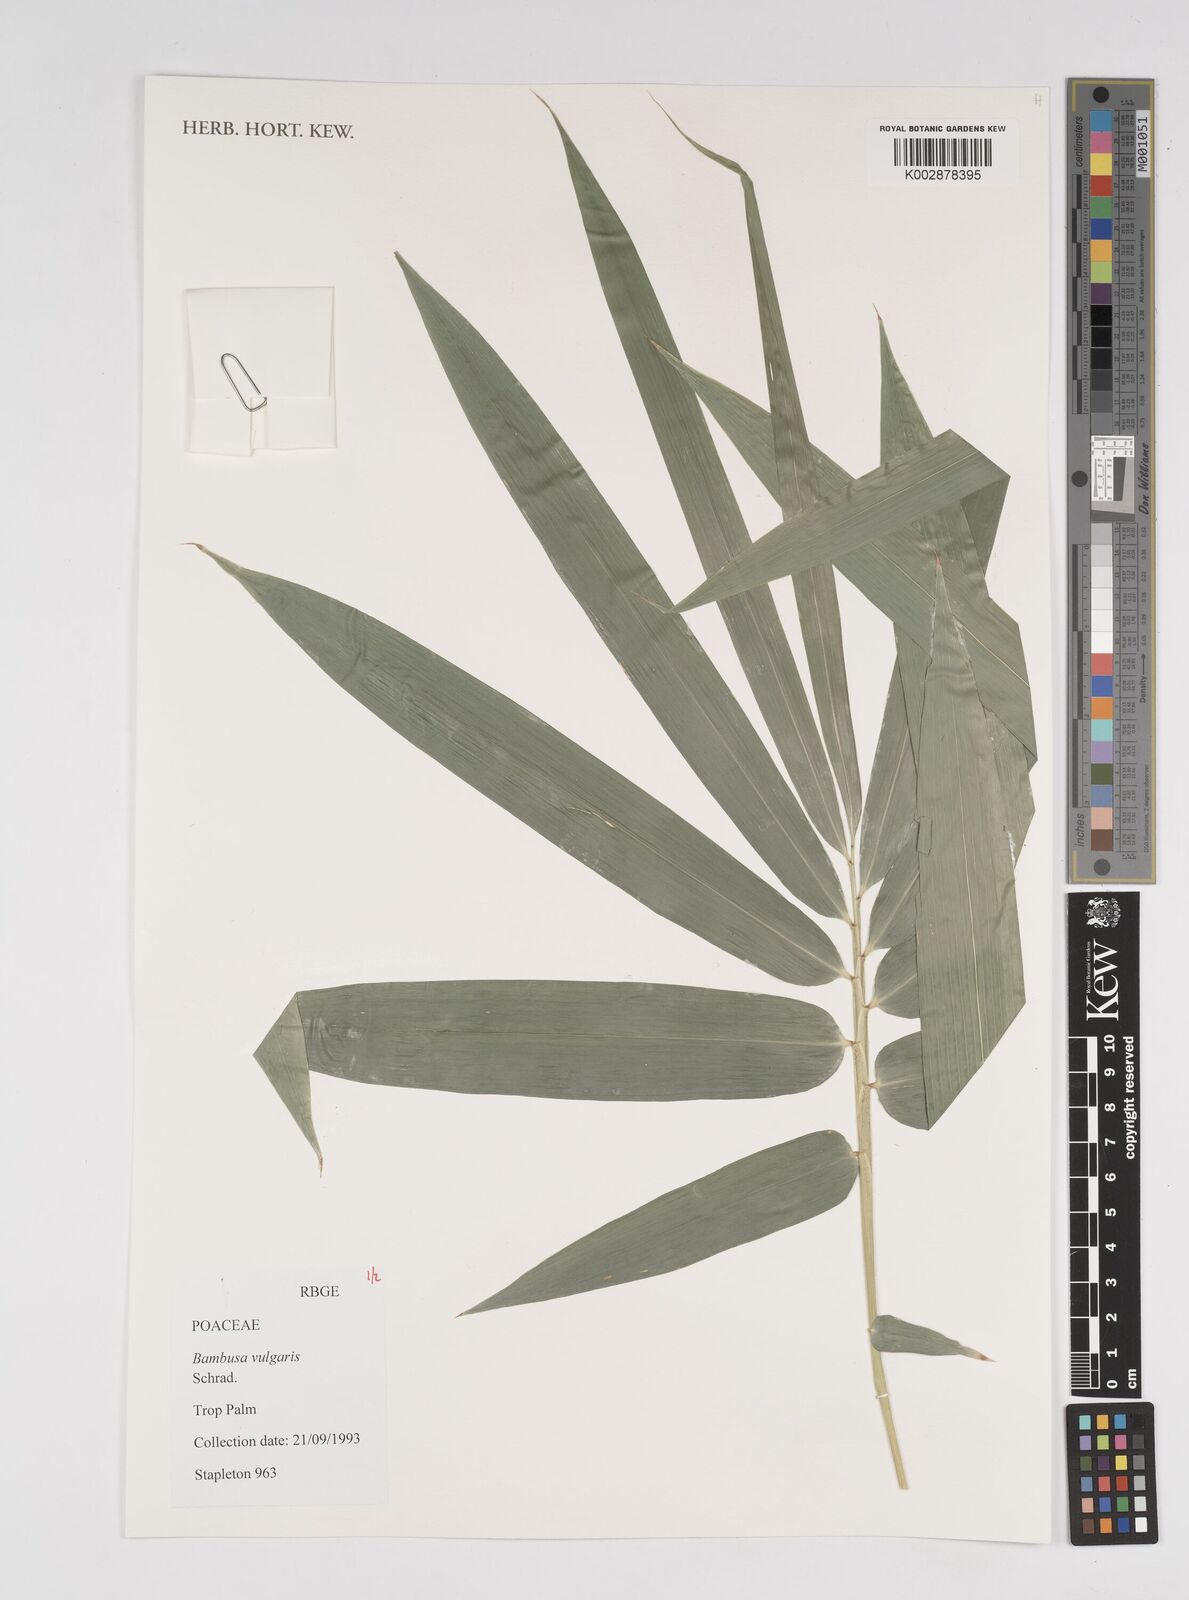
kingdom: Plantae
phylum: Tracheophyta
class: Liliopsida
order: Poales
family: Poaceae
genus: Bambusa
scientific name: Bambusa
